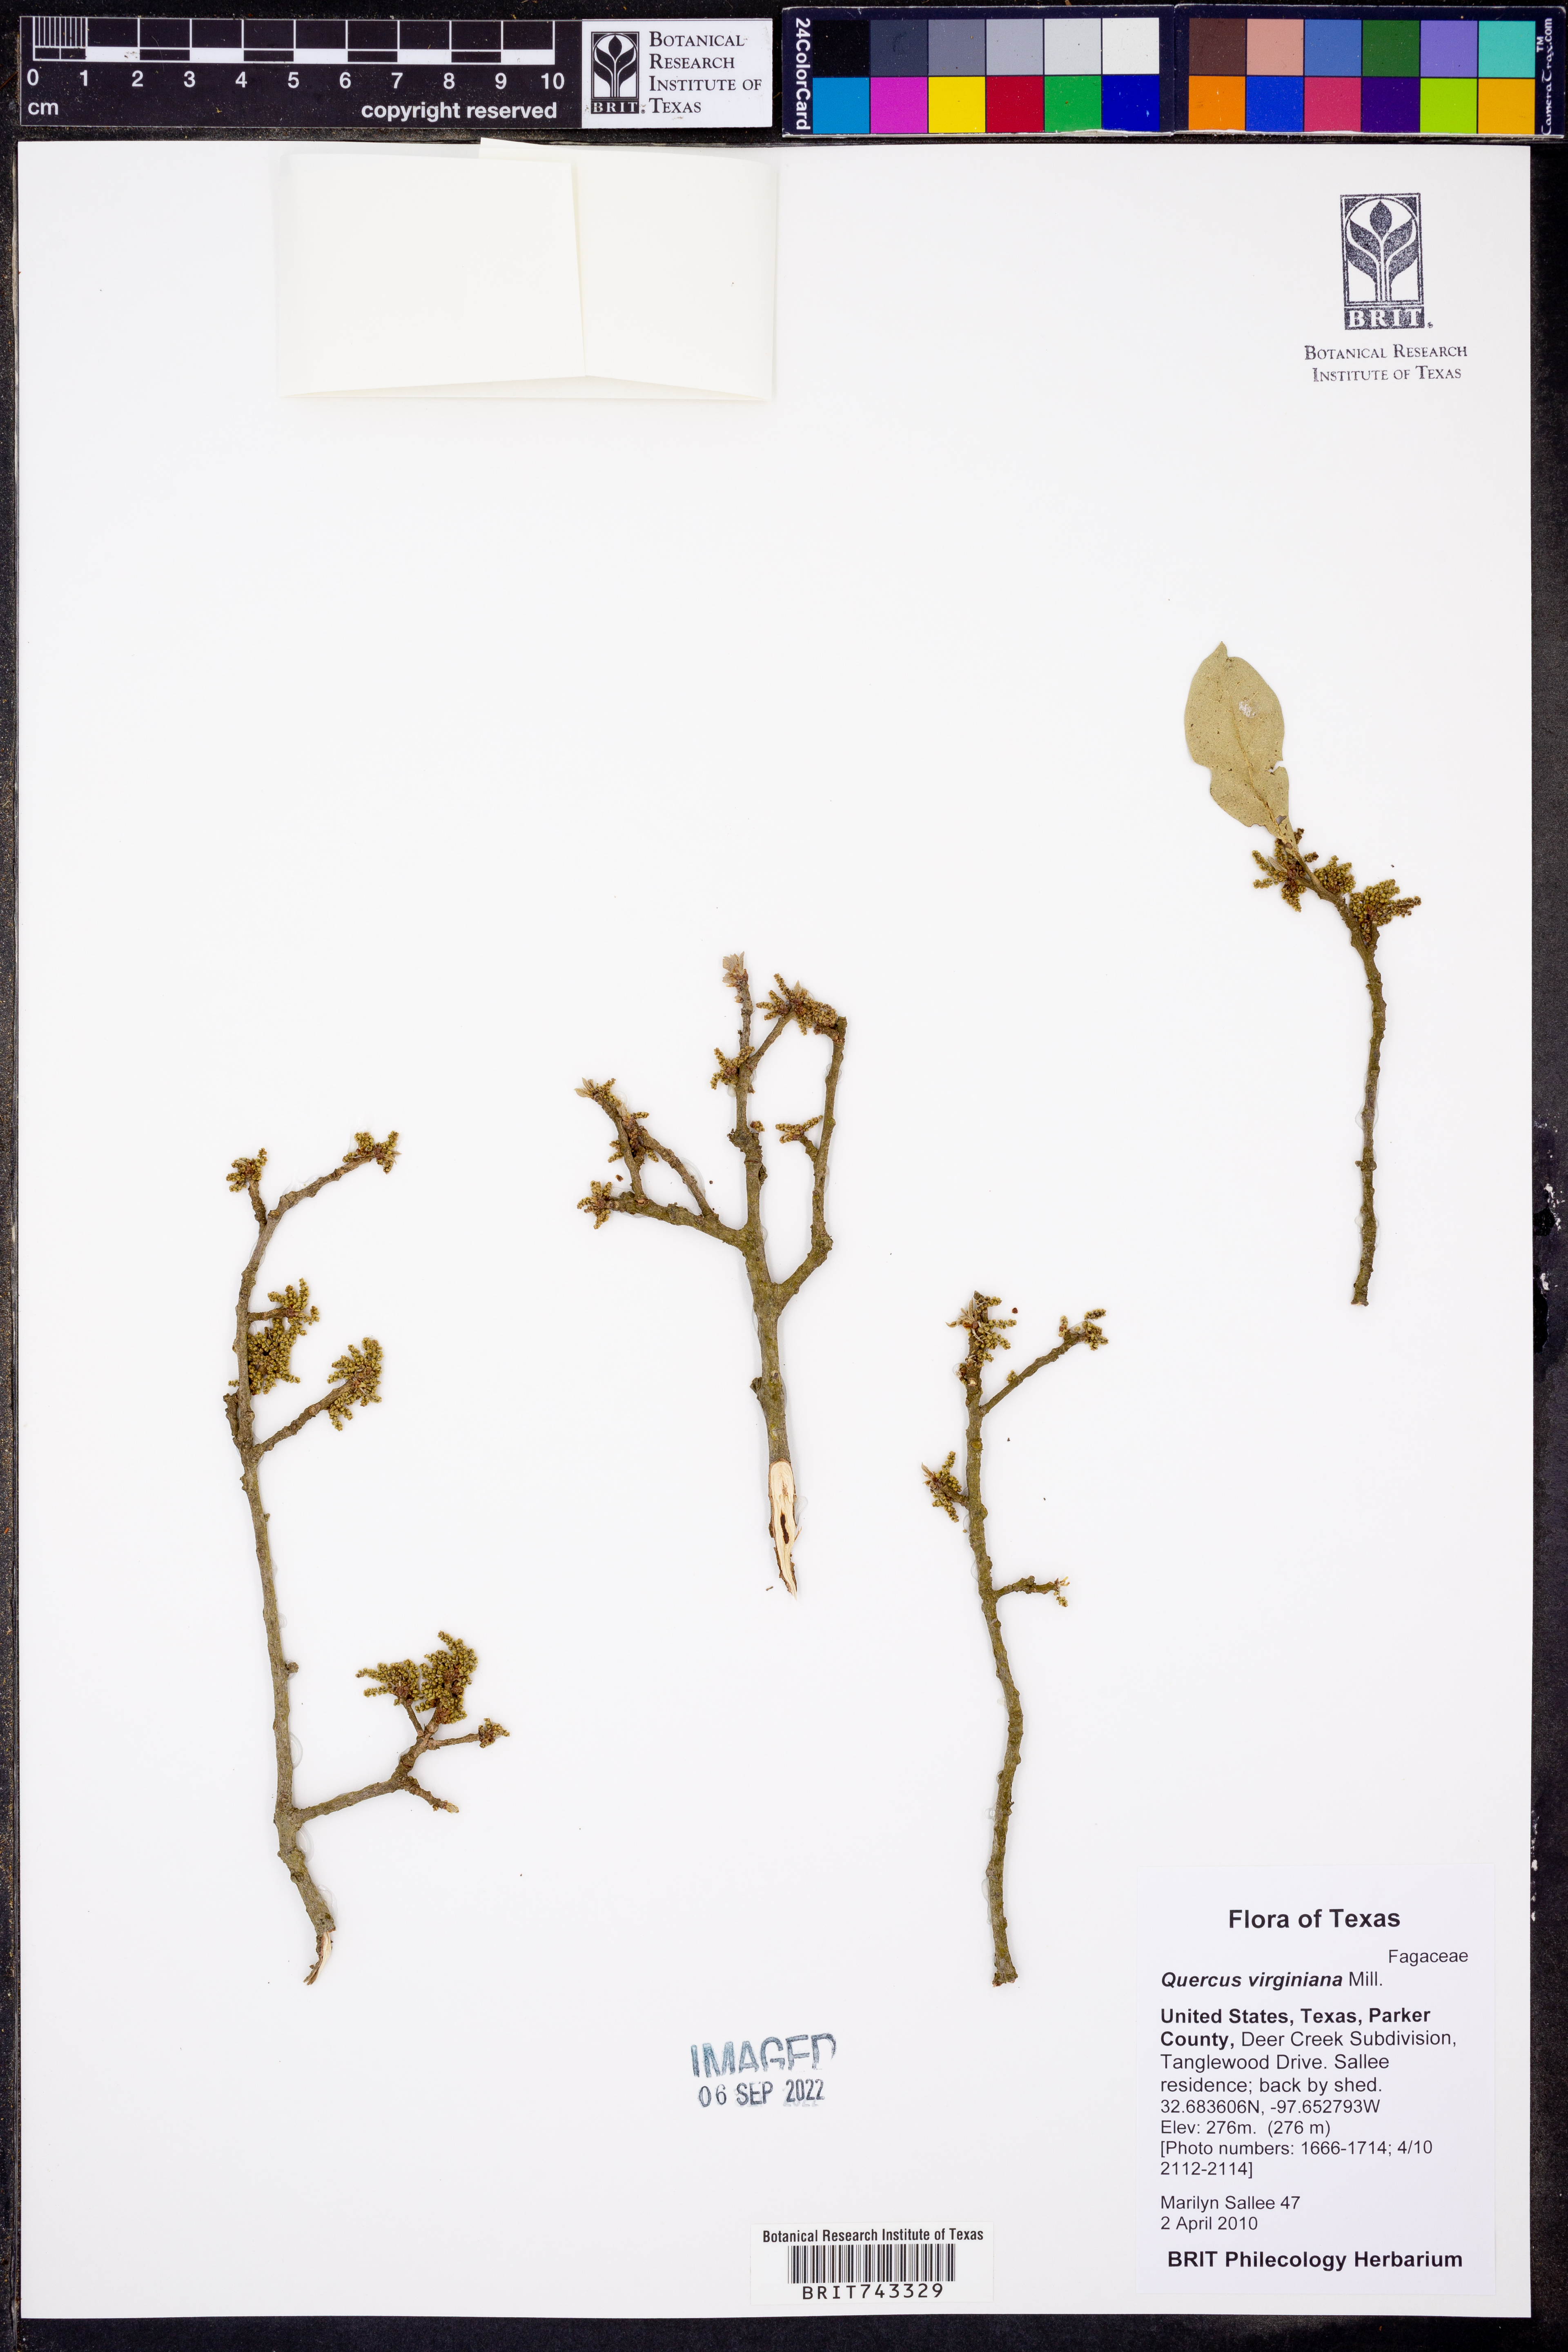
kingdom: Plantae
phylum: Tracheophyta
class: Magnoliopsida
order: Fagales
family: Fagaceae
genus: Quercus
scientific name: Quercus virginiana
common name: Southern live oak
